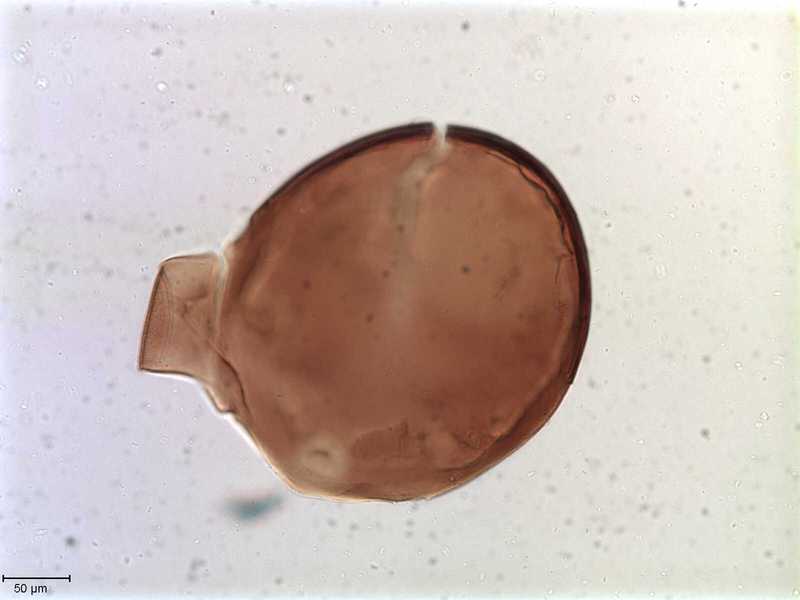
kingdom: Animalia
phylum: Arthropoda
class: Arachnida
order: Sarcoptiformes
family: Tegoribatidae
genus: Plakoribates
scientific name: Plakoribates multicuspidatus
